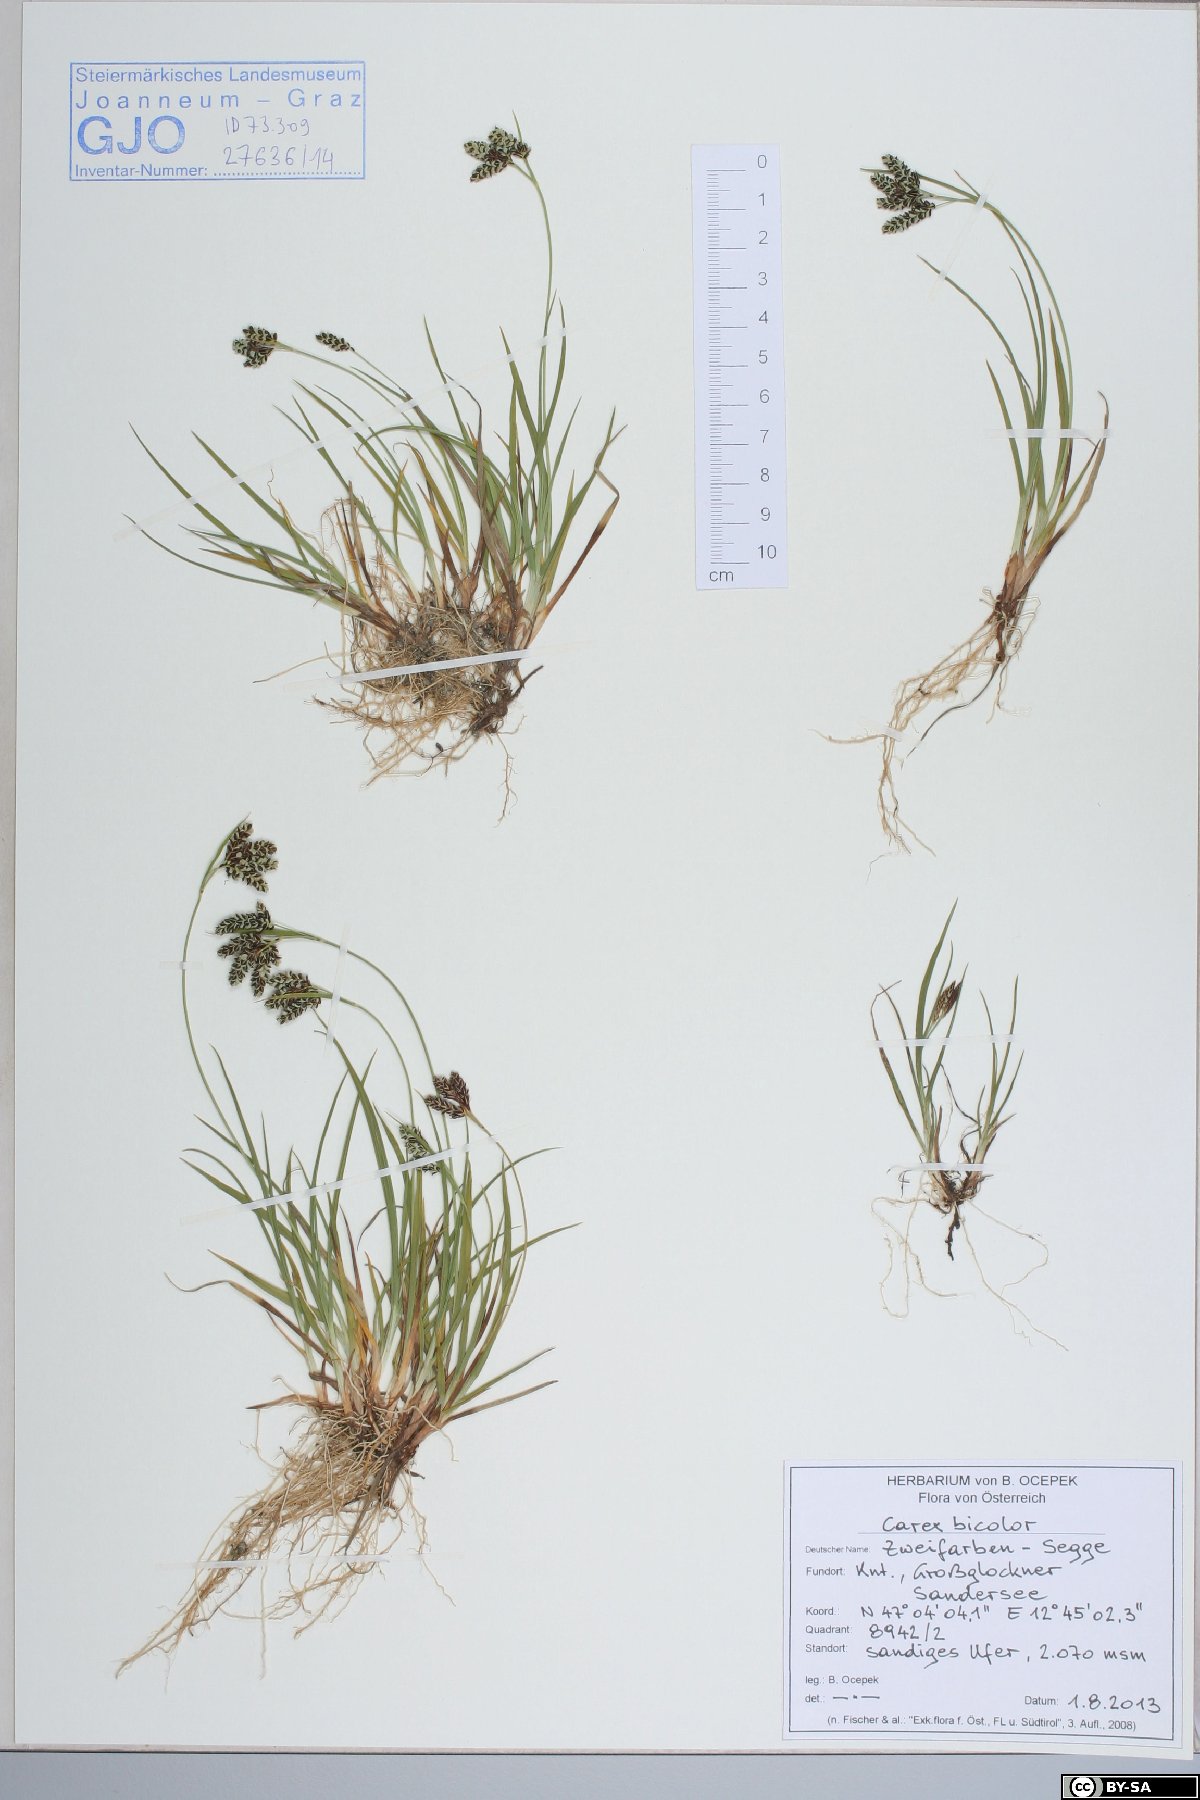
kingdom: Plantae
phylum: Tracheophyta
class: Liliopsida
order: Poales
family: Cyperaceae
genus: Carex
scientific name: Carex bicolor
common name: Bicoloured sedge
